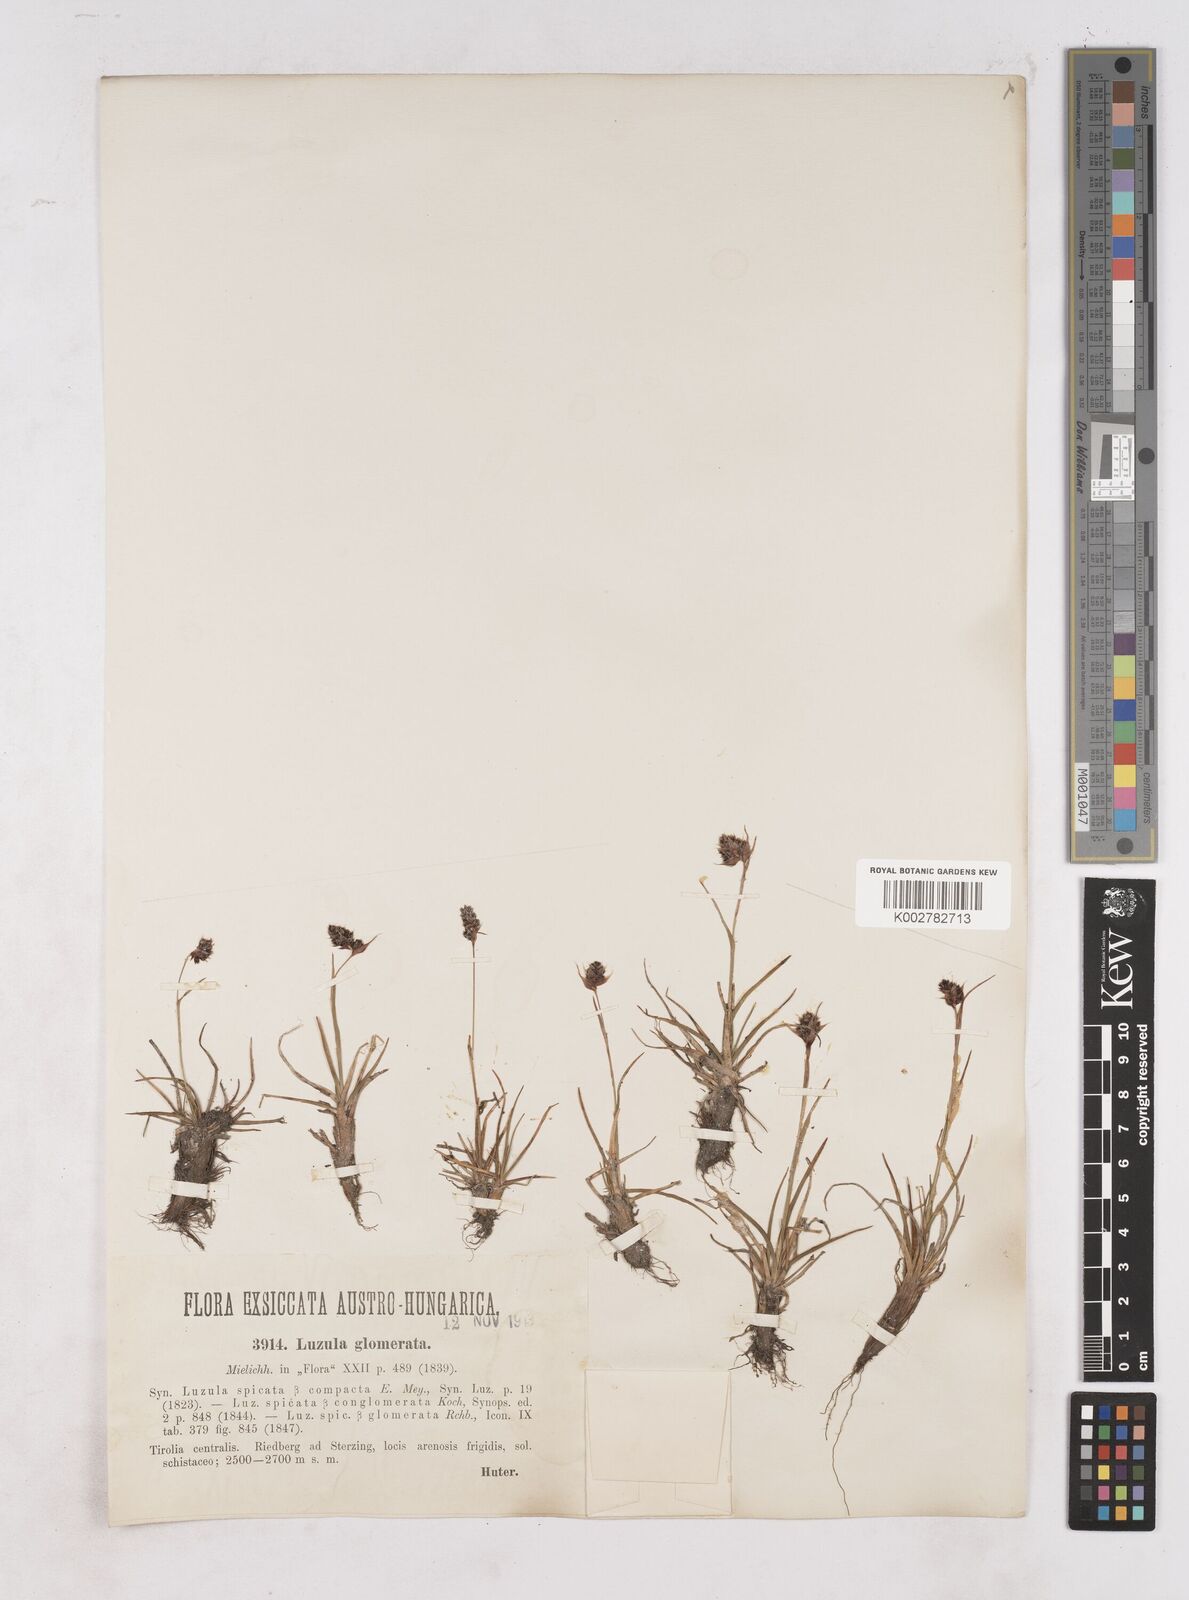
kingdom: Plantae
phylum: Tracheophyta
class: Liliopsida
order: Poales
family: Juncaceae
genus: Luzula
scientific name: Luzula spicata
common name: Spiked wood-rush
